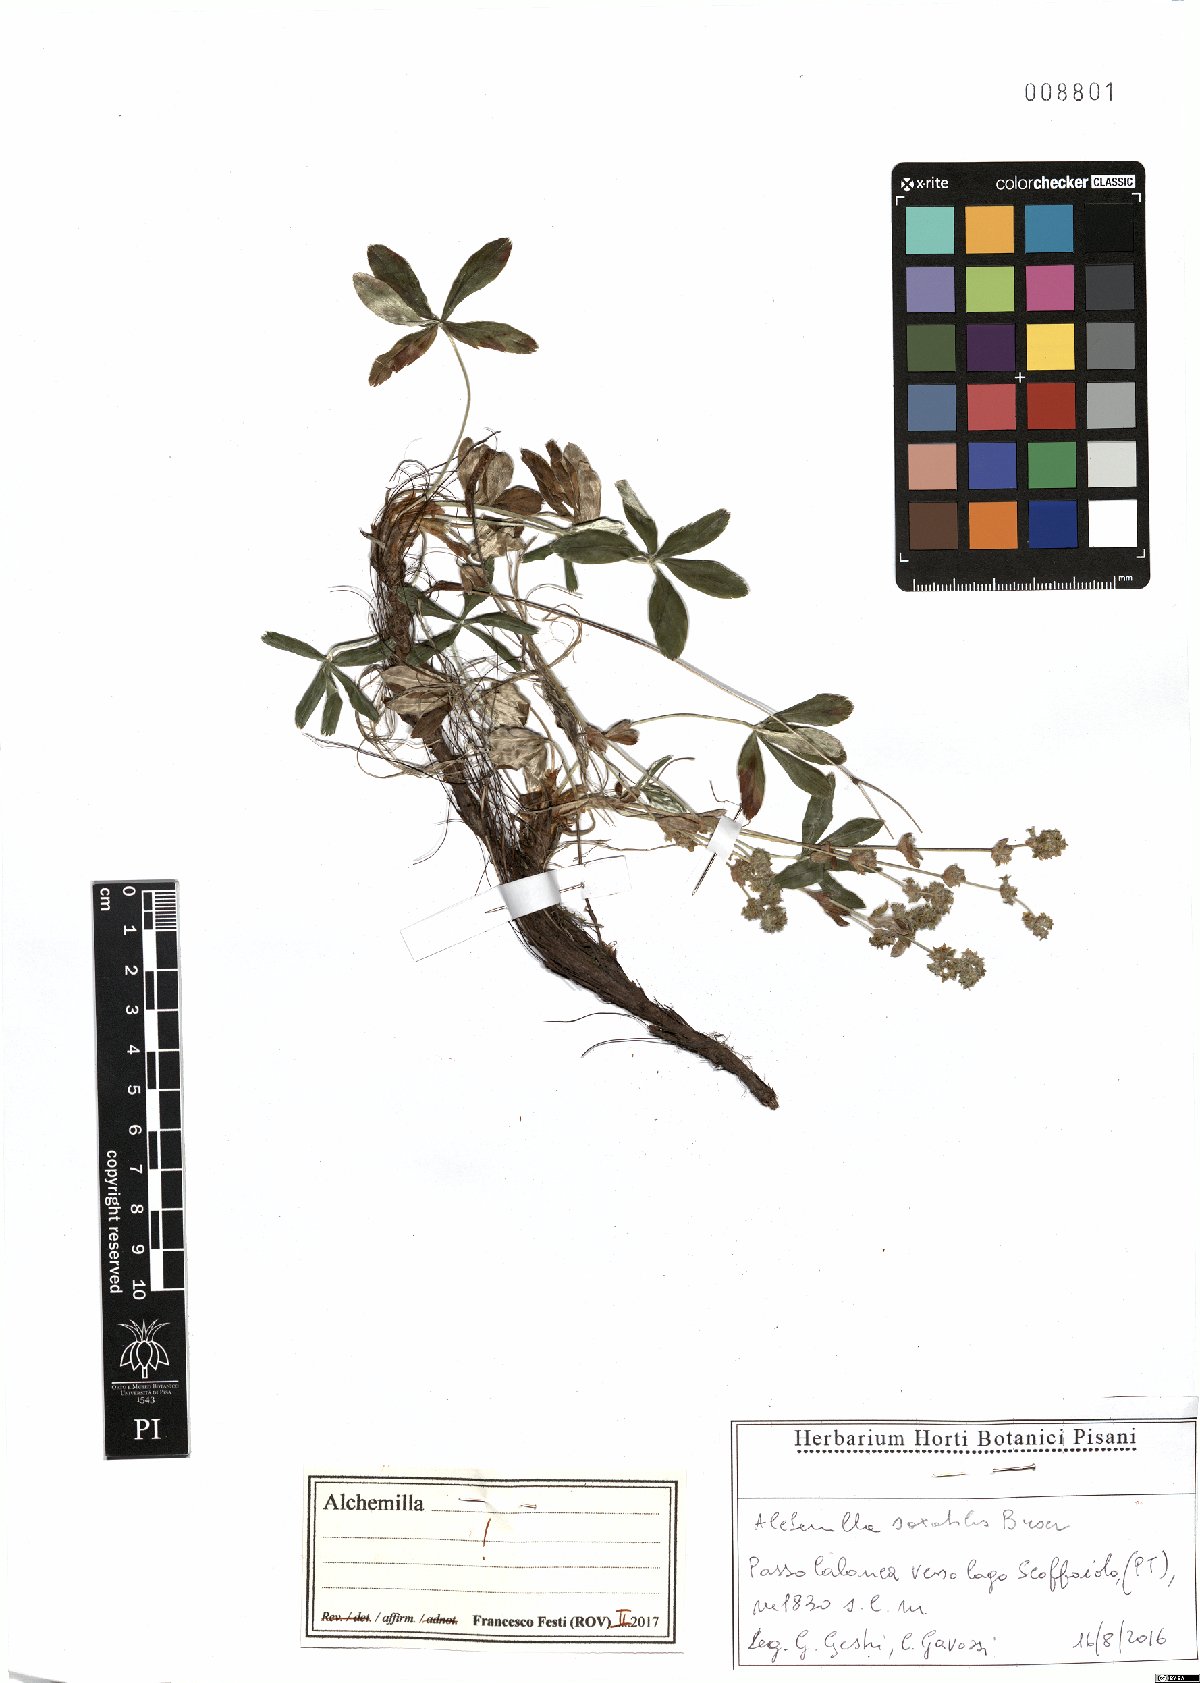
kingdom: Plantae
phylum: Tracheophyta
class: Magnoliopsida
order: Rosales
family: Rosaceae
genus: Alchemilla
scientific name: Alchemilla saxatilis
